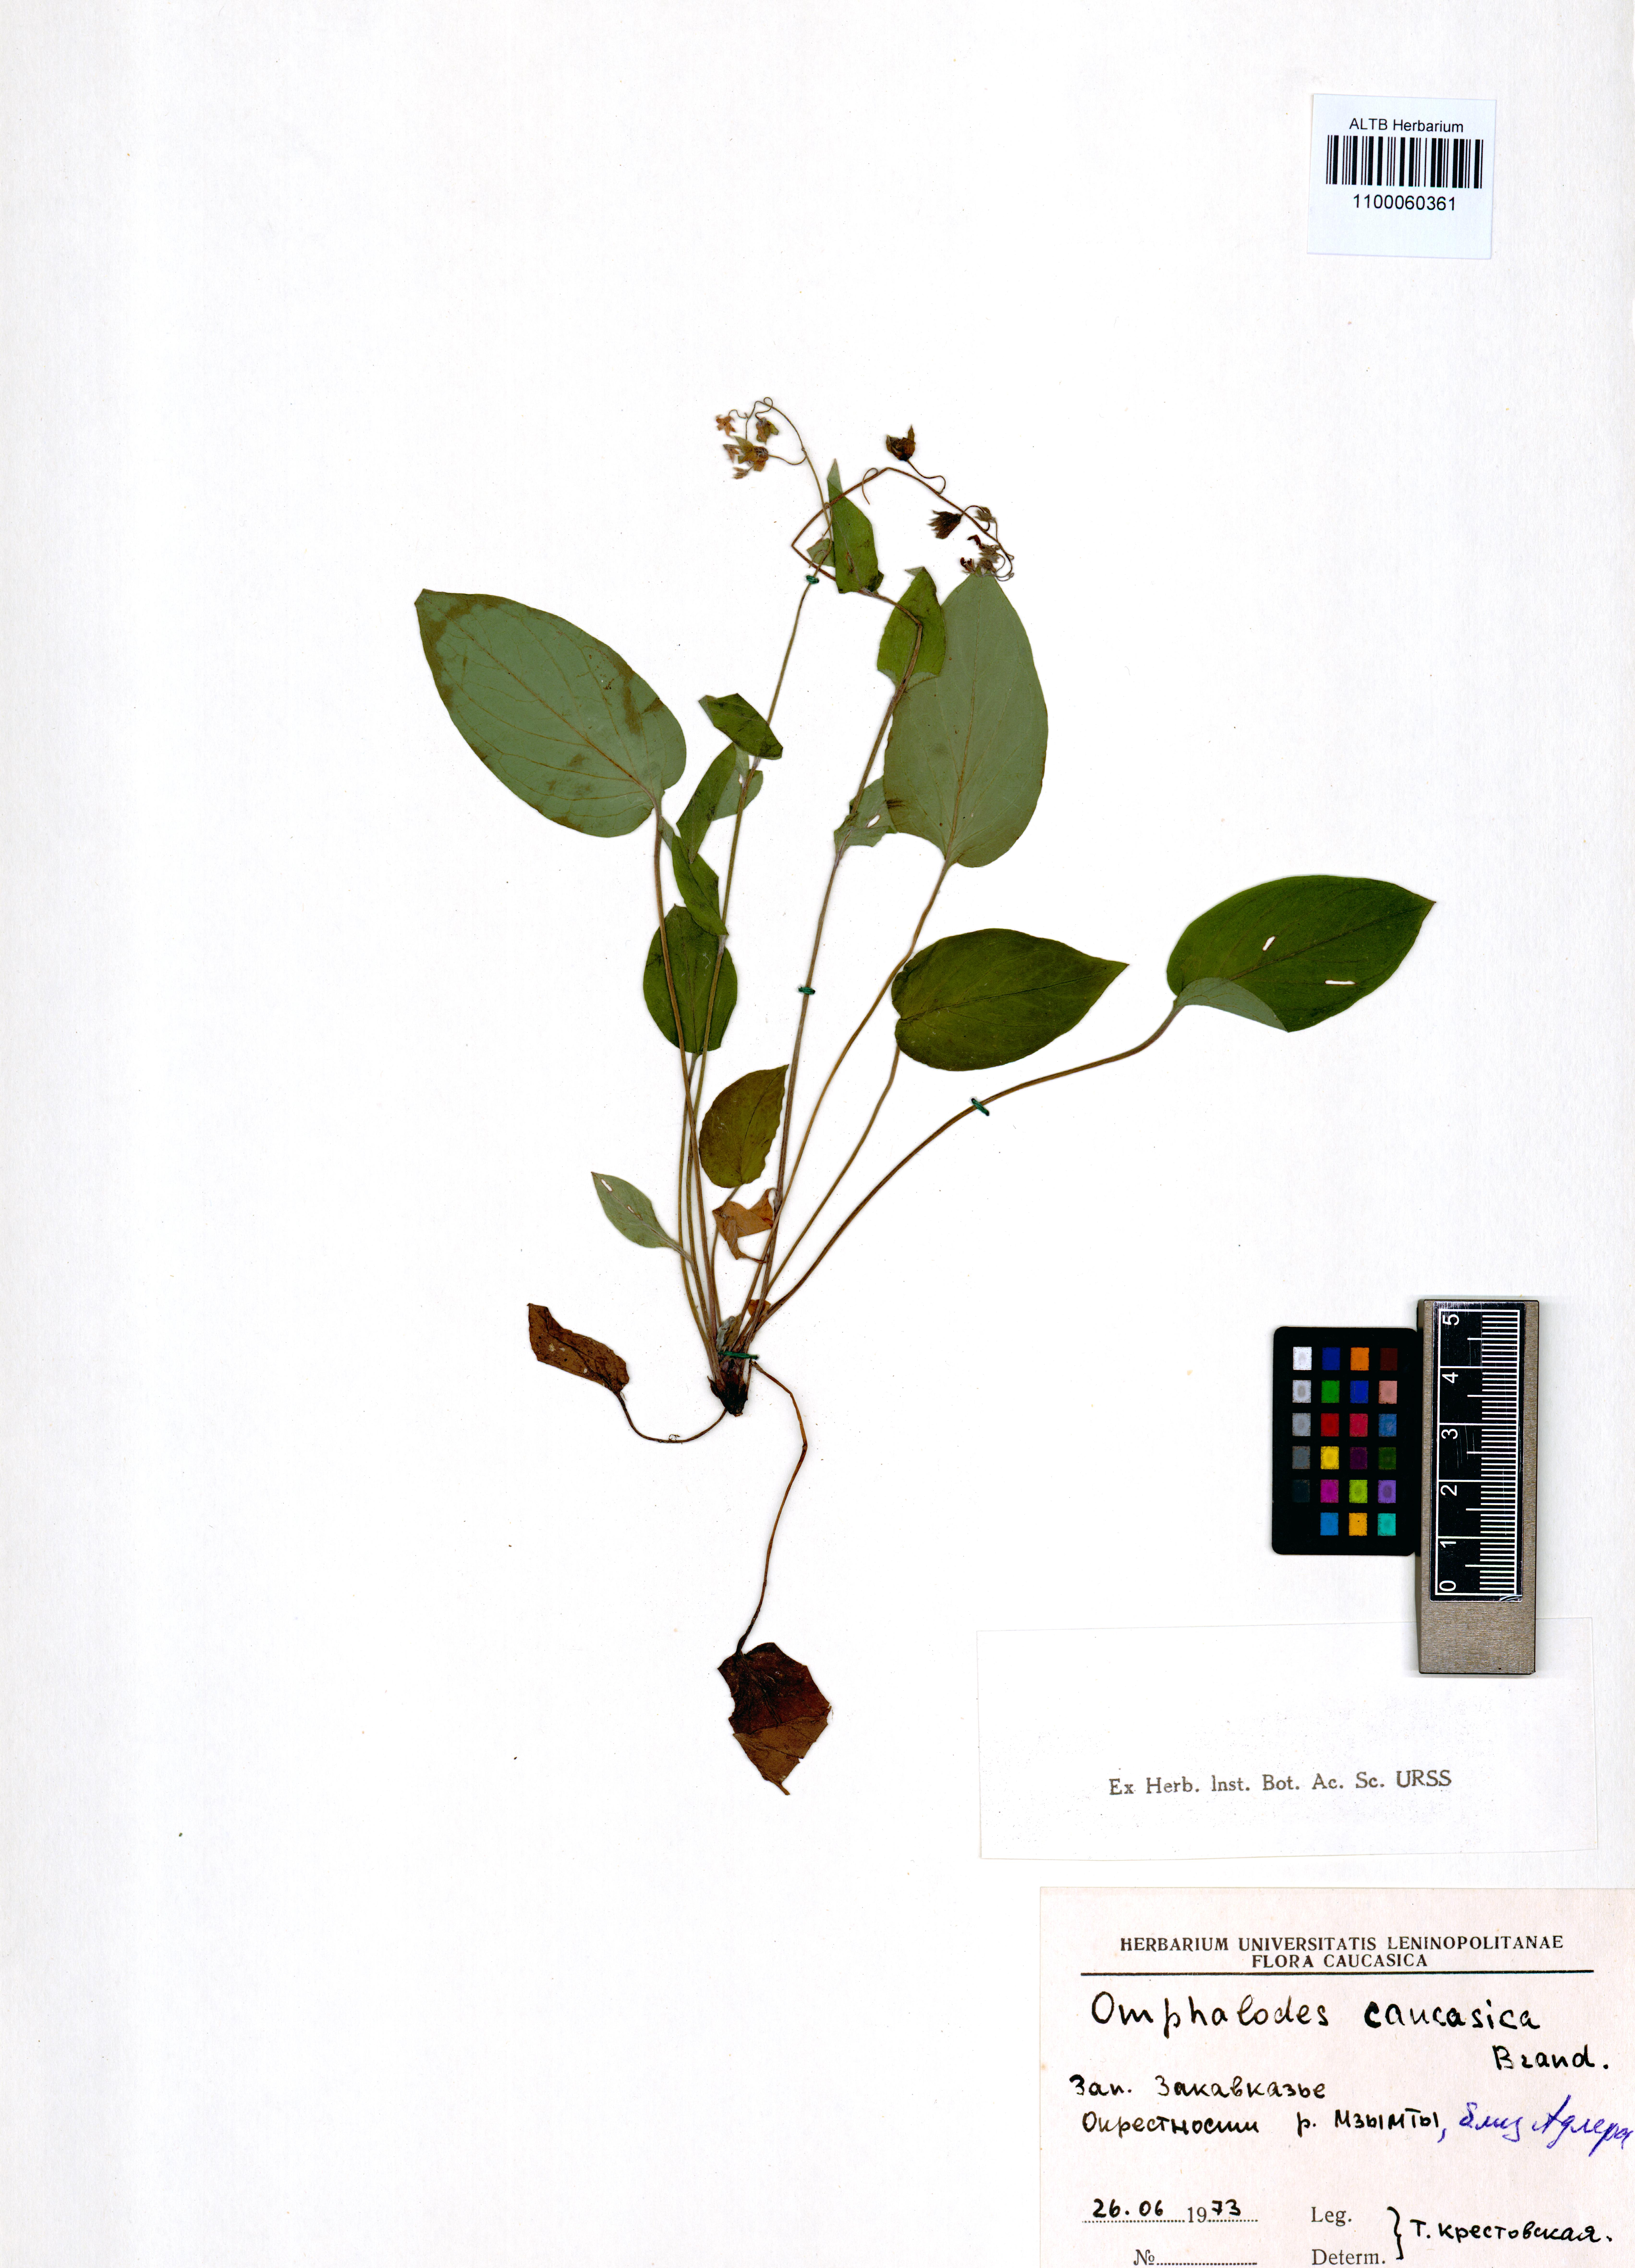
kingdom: Plantae
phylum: Tracheophyta
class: Magnoliopsida
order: Boraginales
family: Boraginaceae
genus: Omphalodes
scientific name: Omphalodes cappadocica
